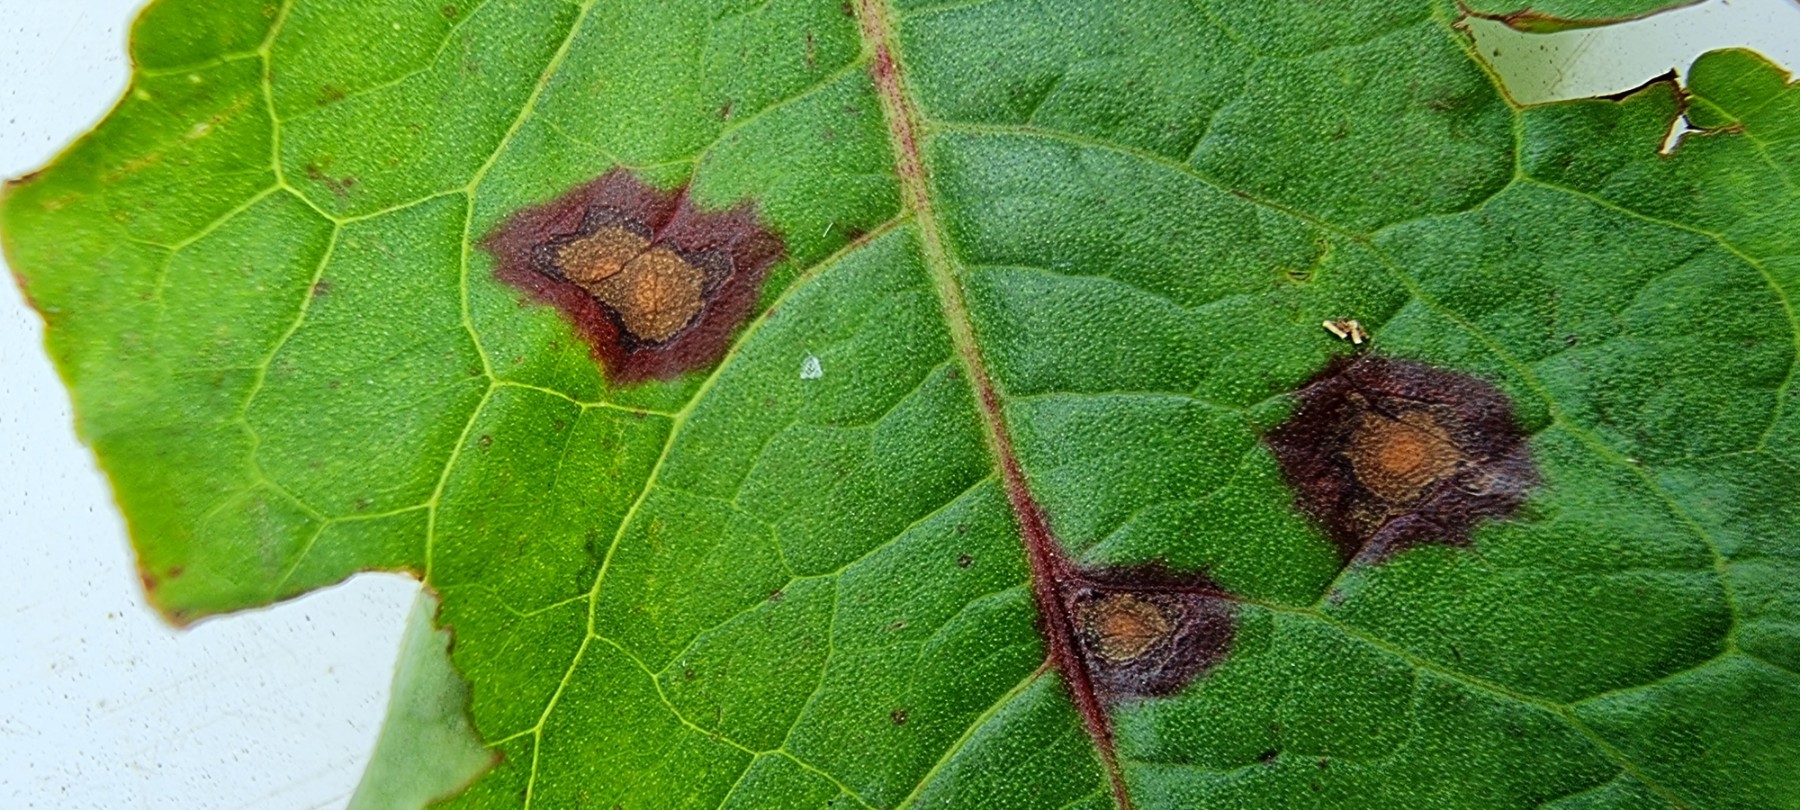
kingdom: Fungi
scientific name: Fungi
